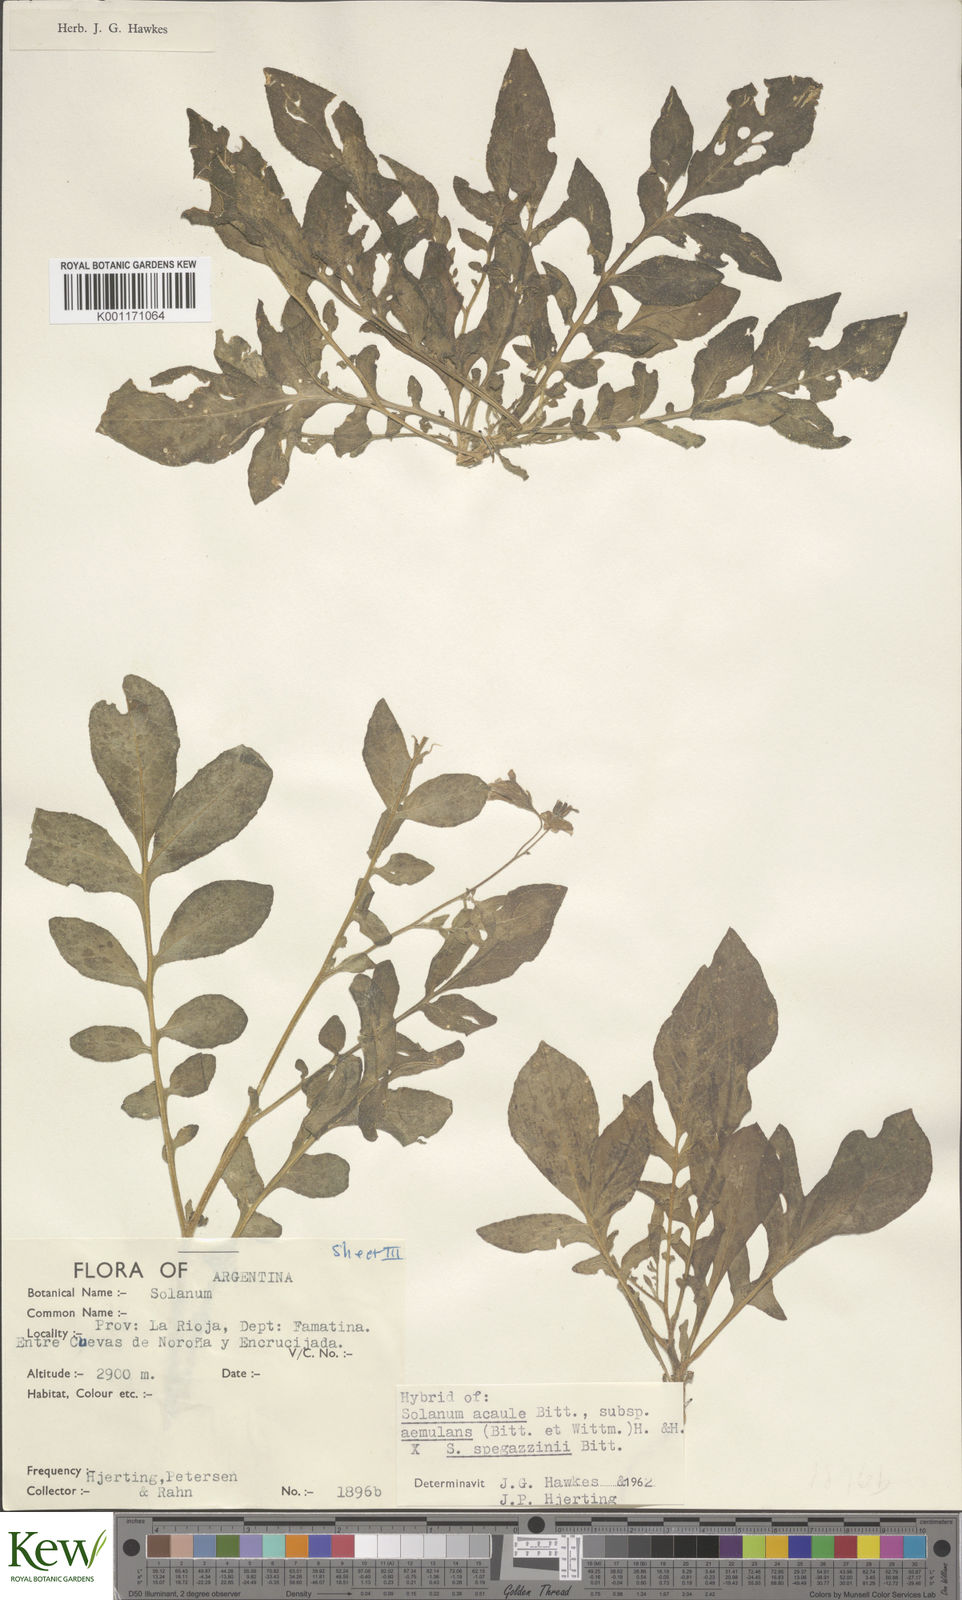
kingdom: Plantae
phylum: Tracheophyta
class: Magnoliopsida
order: Solanales
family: Solanaceae
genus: Solanum
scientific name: Solanum aemulans
